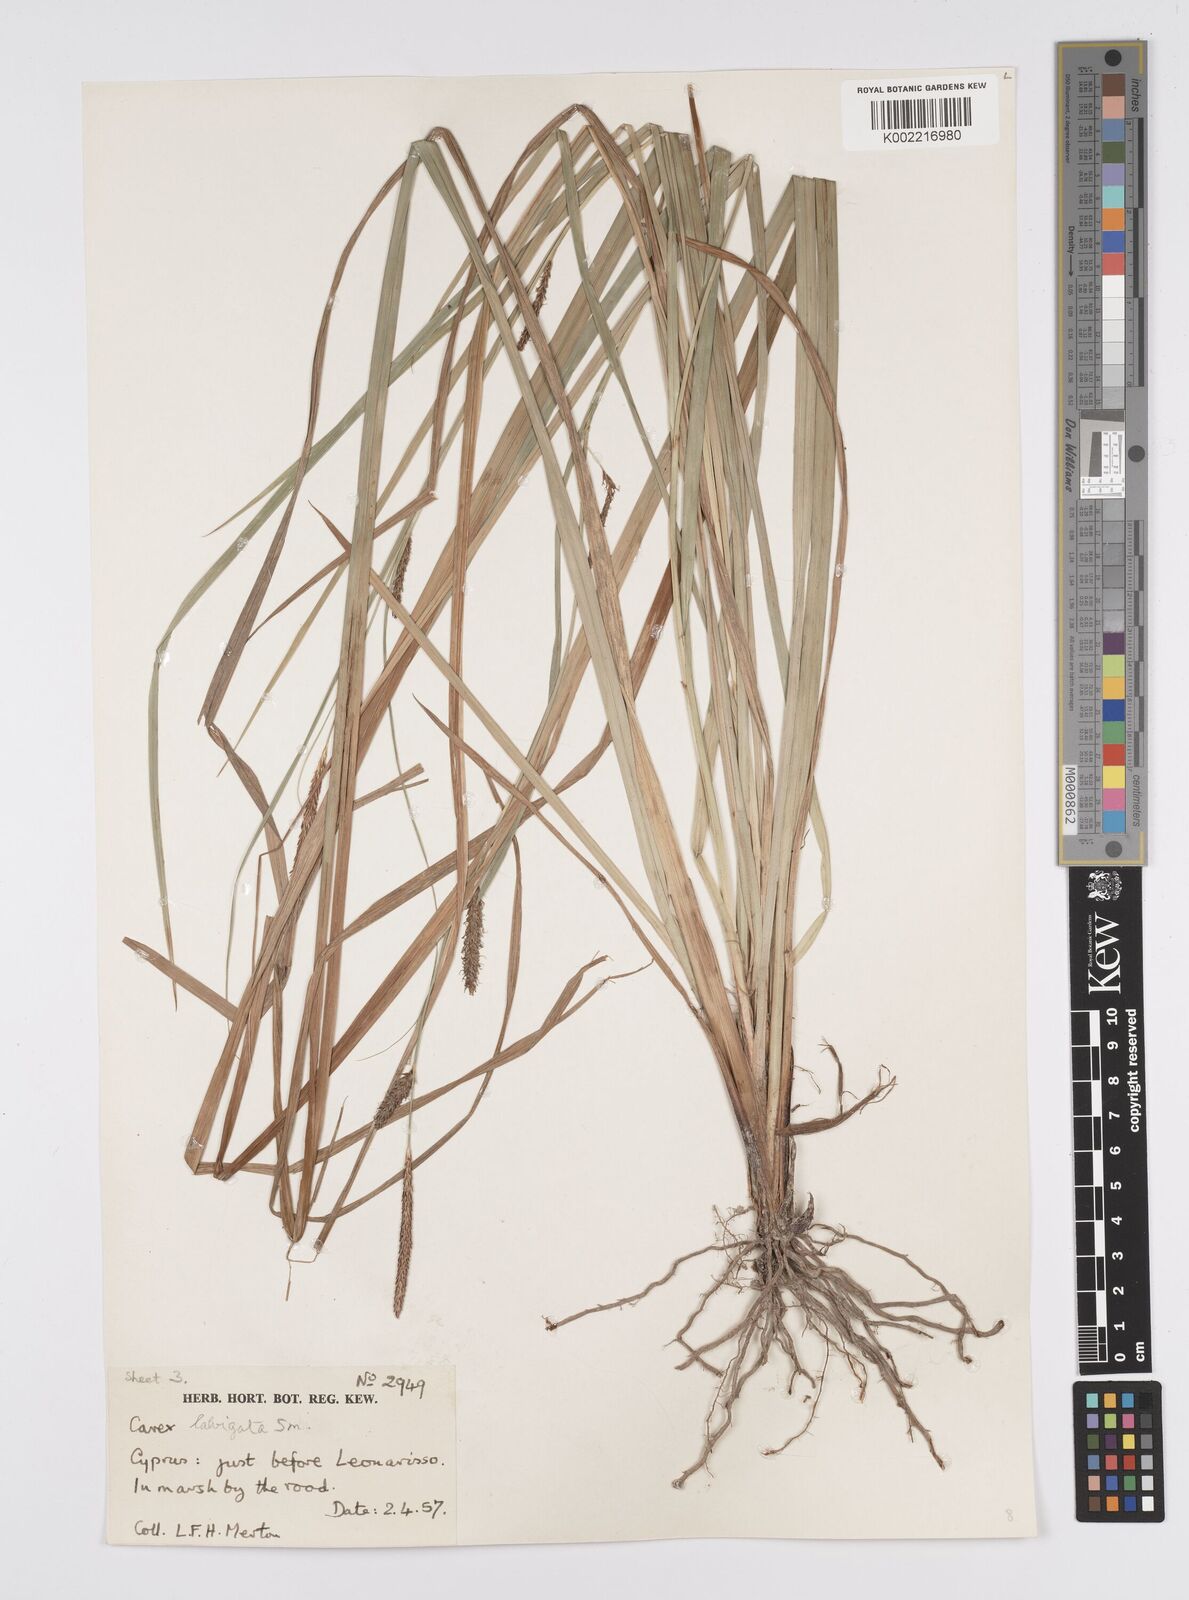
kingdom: Plantae
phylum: Tracheophyta
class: Liliopsida
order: Poales
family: Cyperaceae
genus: Carex
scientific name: Carex distans
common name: Distant sedge
